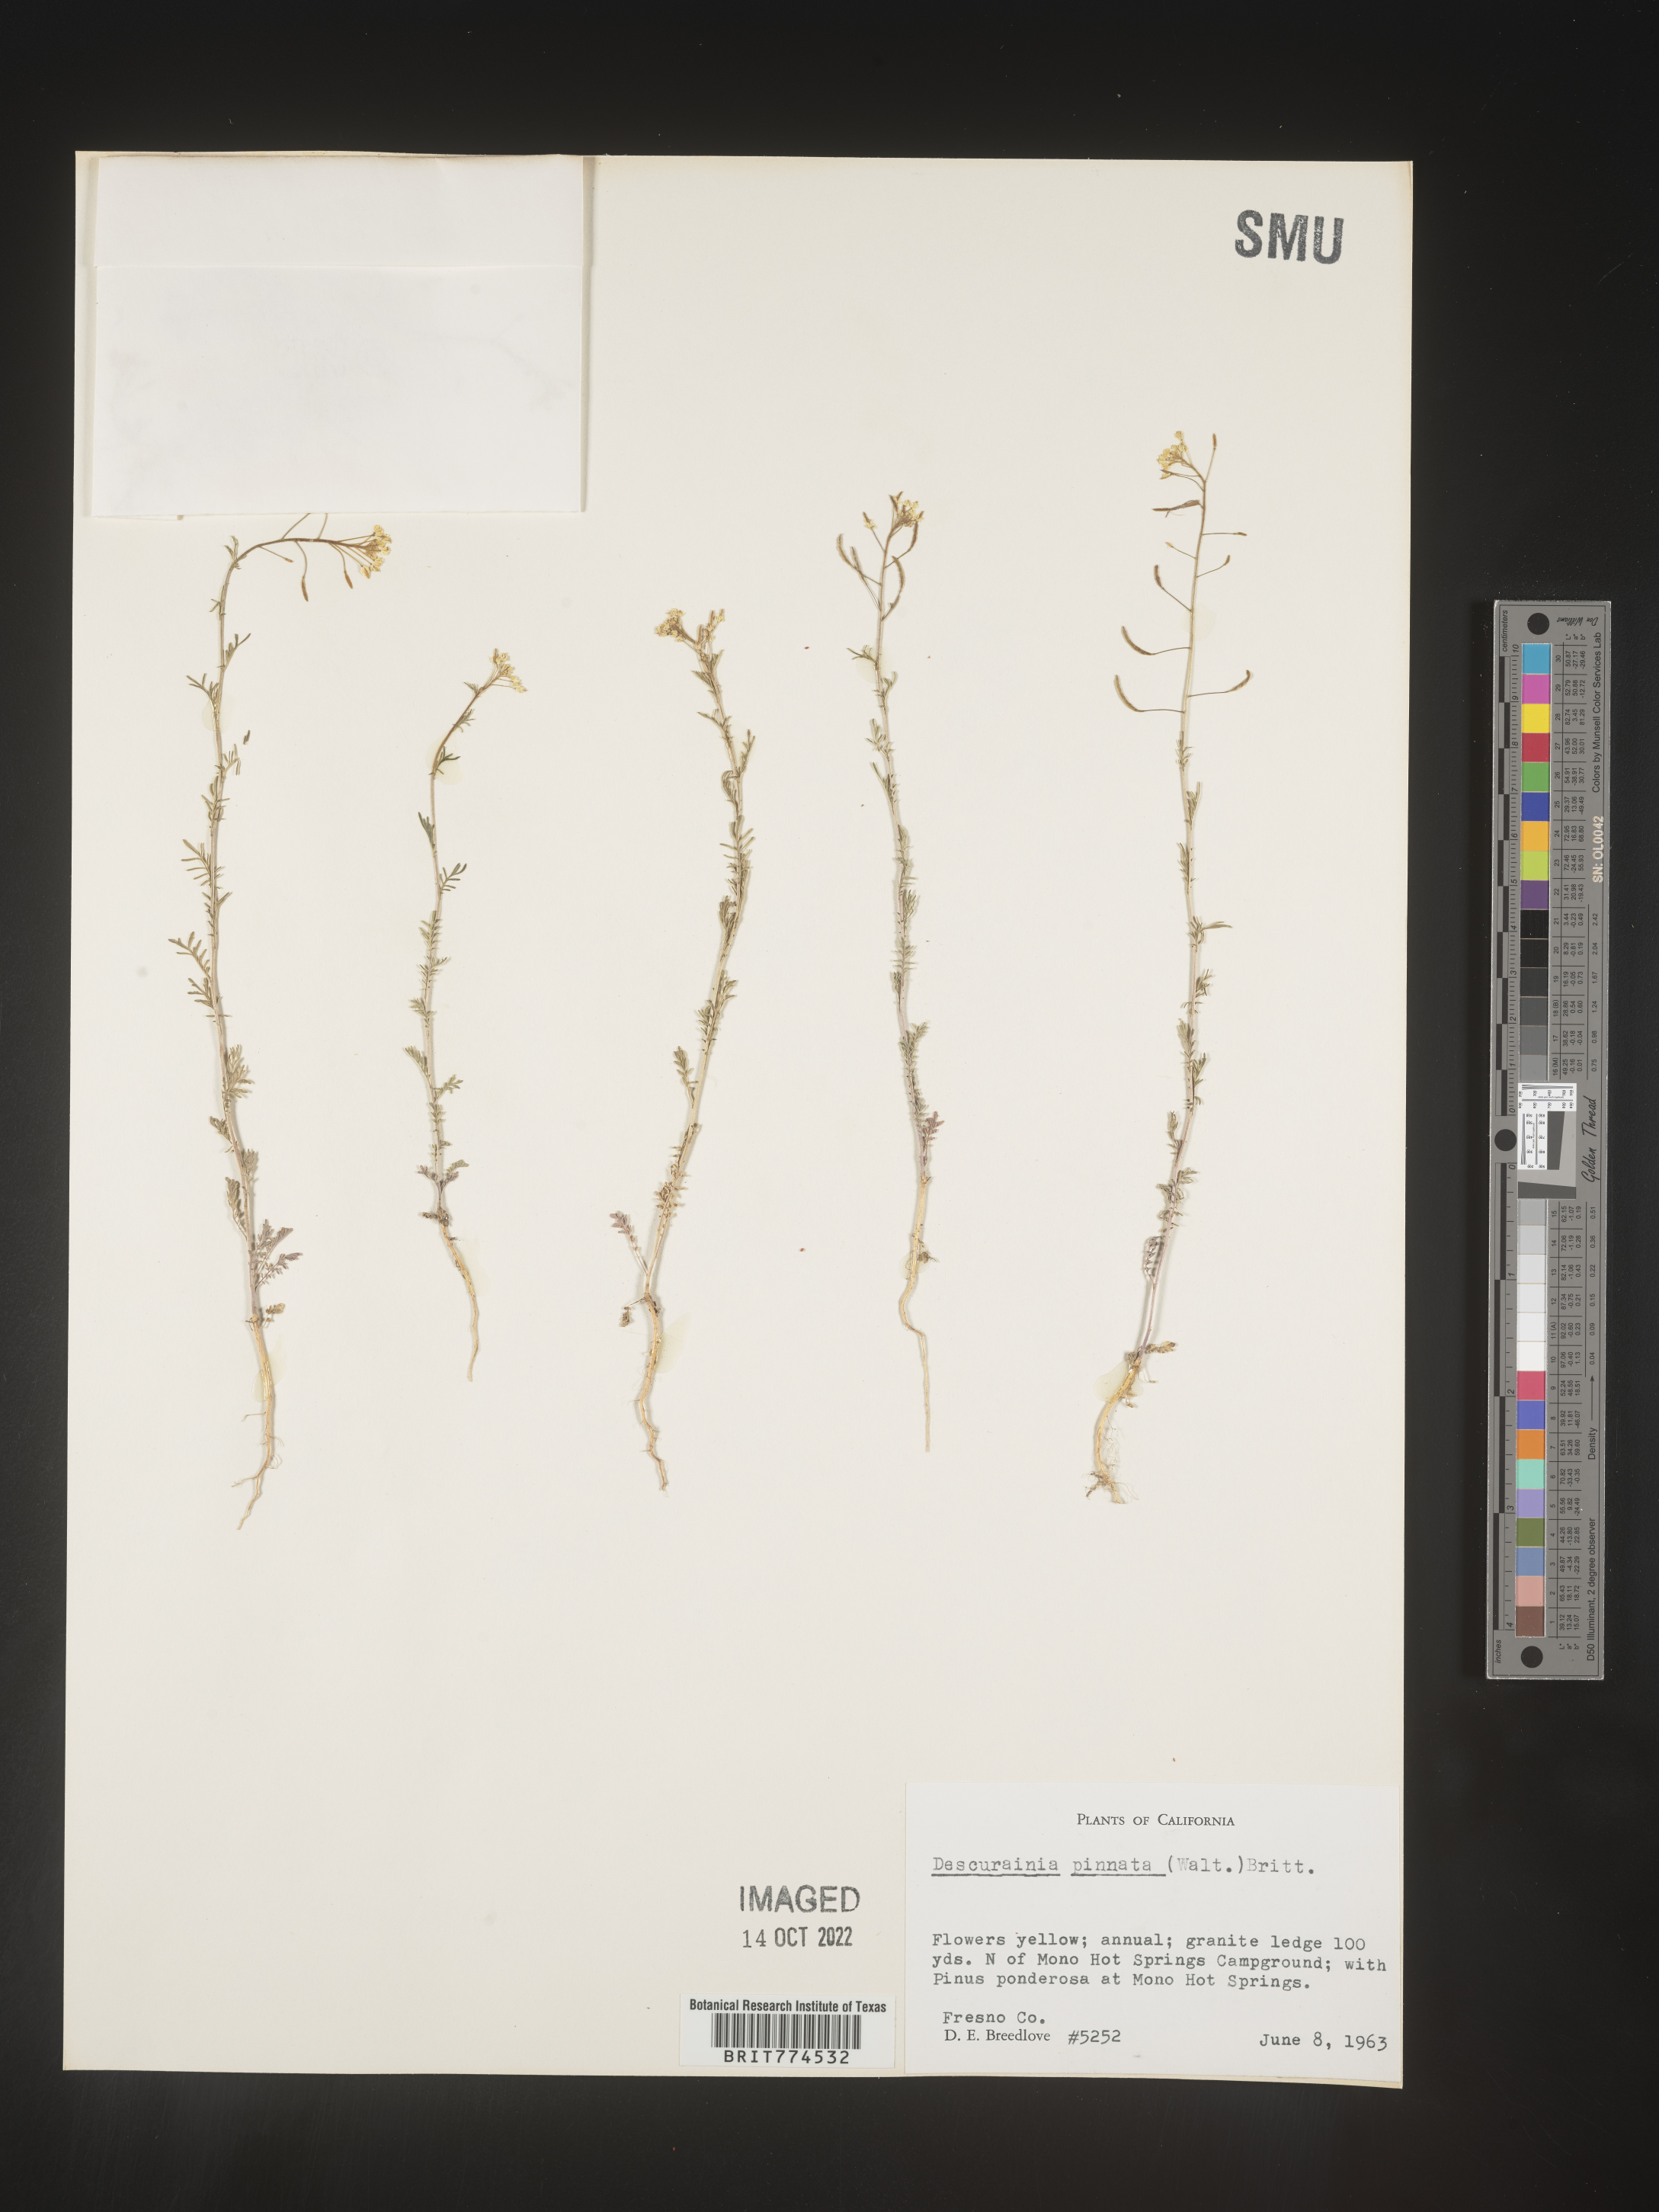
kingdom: Plantae
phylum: Tracheophyta
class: Magnoliopsida
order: Brassicales
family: Brassicaceae
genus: Descurainia
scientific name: Descurainia pinnata
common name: Western tansy mustard
